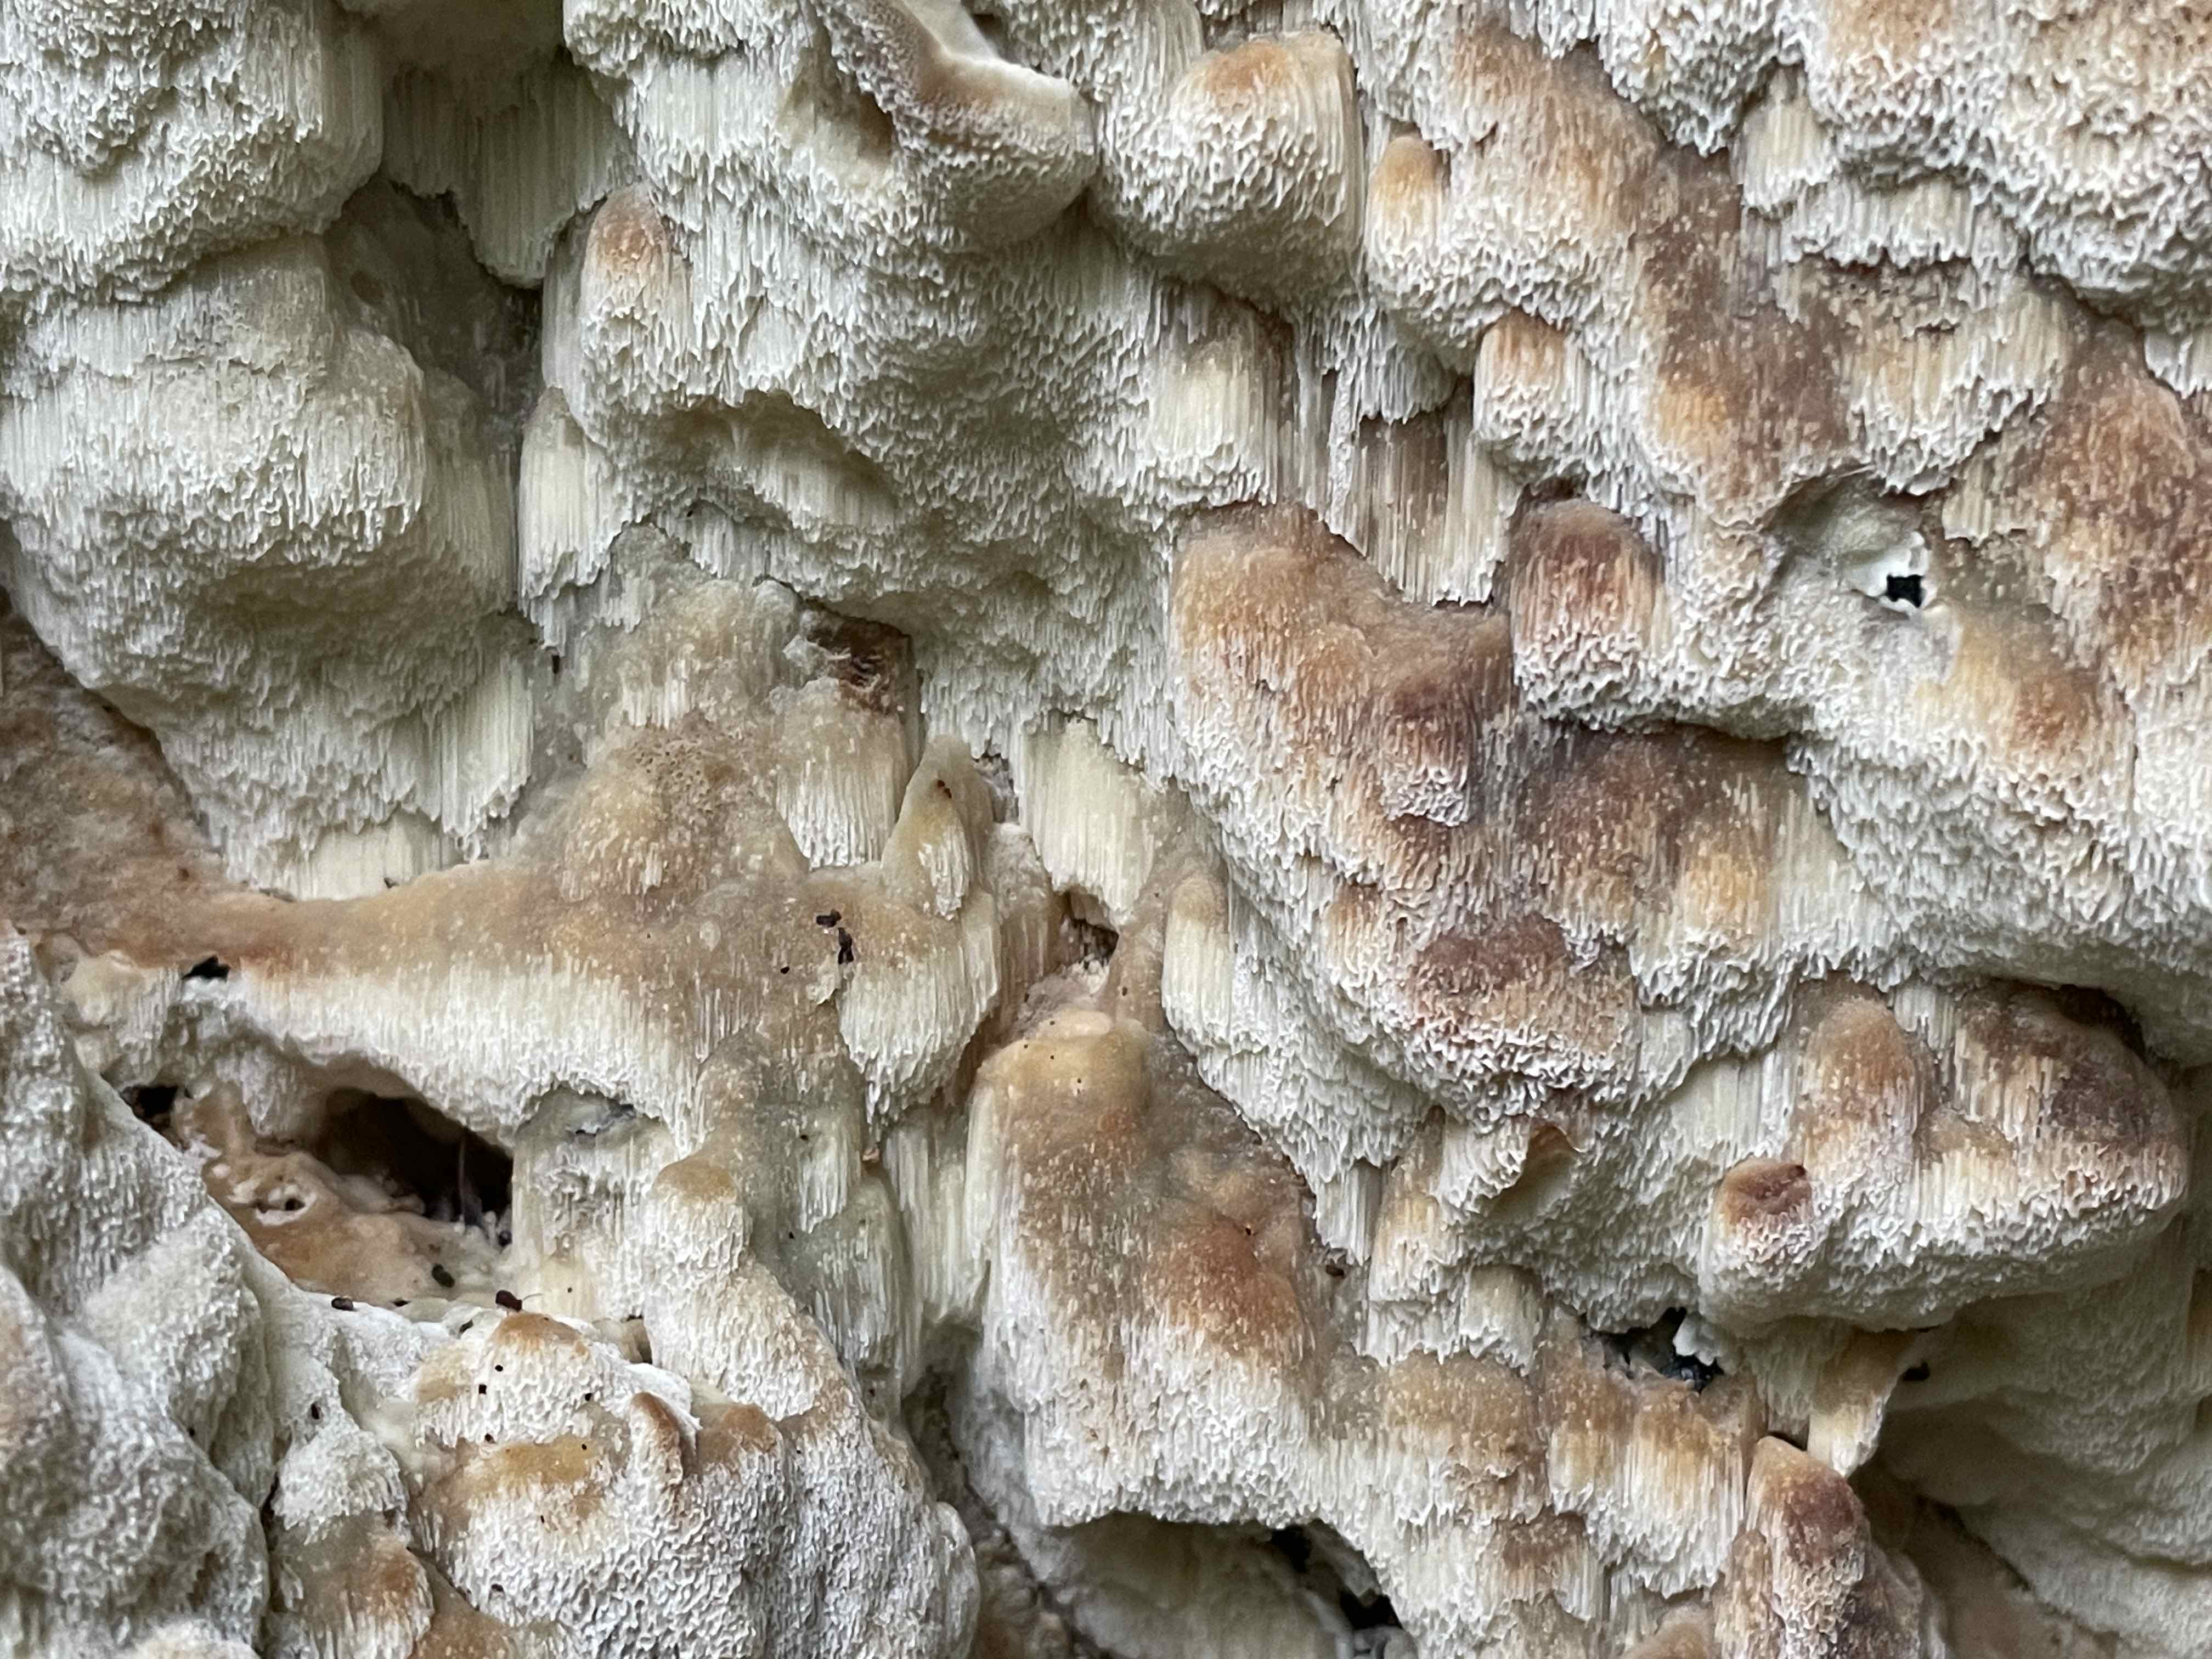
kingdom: Fungi
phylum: Basidiomycota
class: Agaricomycetes
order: Polyporales
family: Meruliaceae
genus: Physisporinus
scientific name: Physisporinus vitreus
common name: mastesvamp
